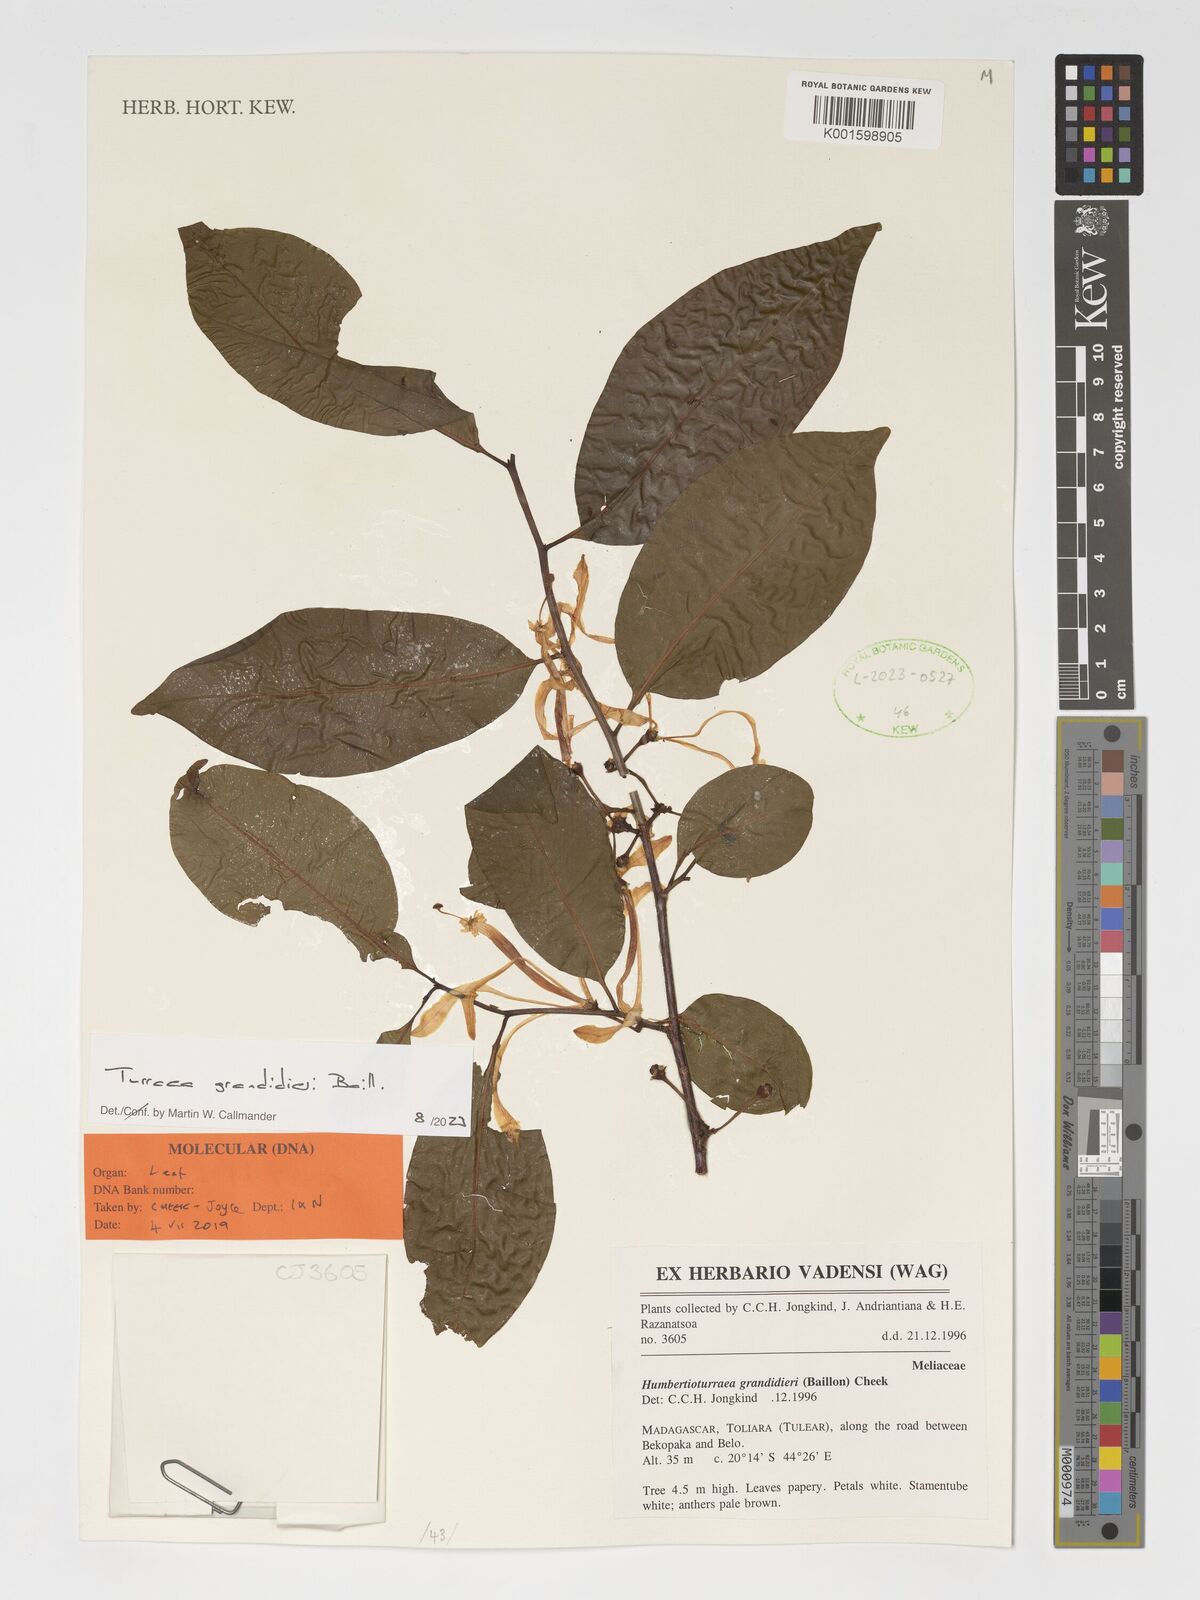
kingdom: Plantae
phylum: Tracheophyta
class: Magnoliopsida
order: Sapindales
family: Meliaceae
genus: Humbertioturraea
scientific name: Humbertioturraea grandidieri
